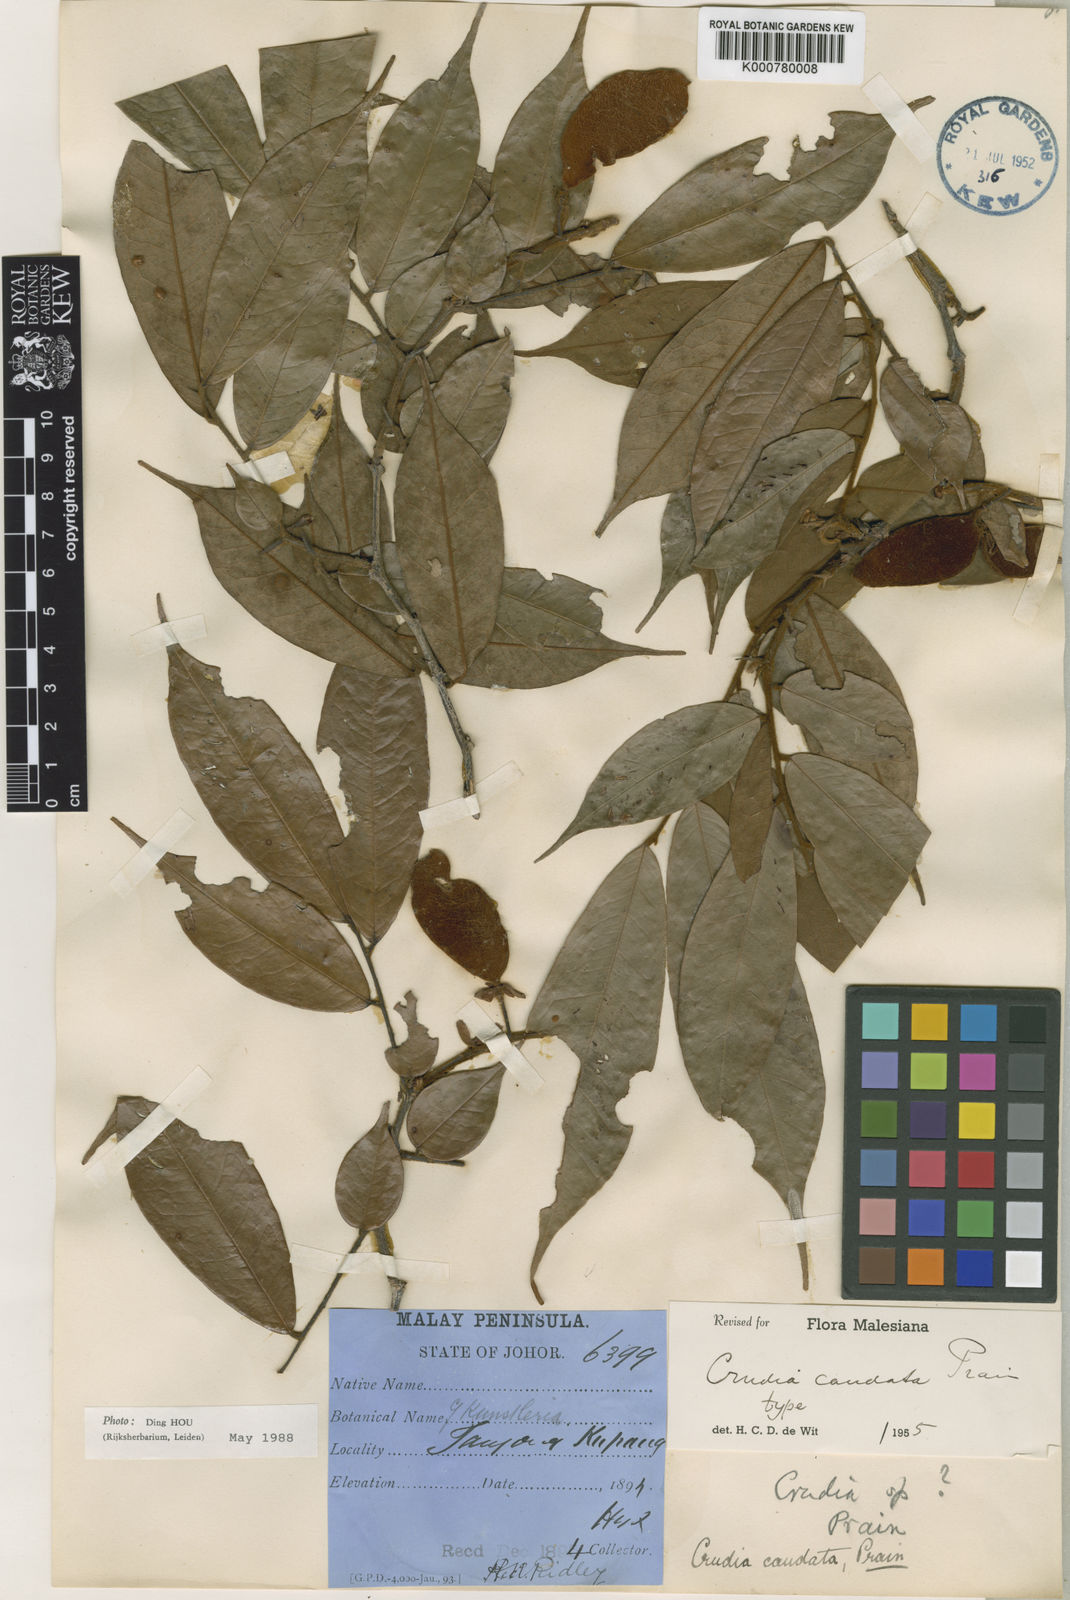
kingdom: Plantae
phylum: Tracheophyta
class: Magnoliopsida
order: Fabales
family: Fabaceae
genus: Crudia
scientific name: Crudia
